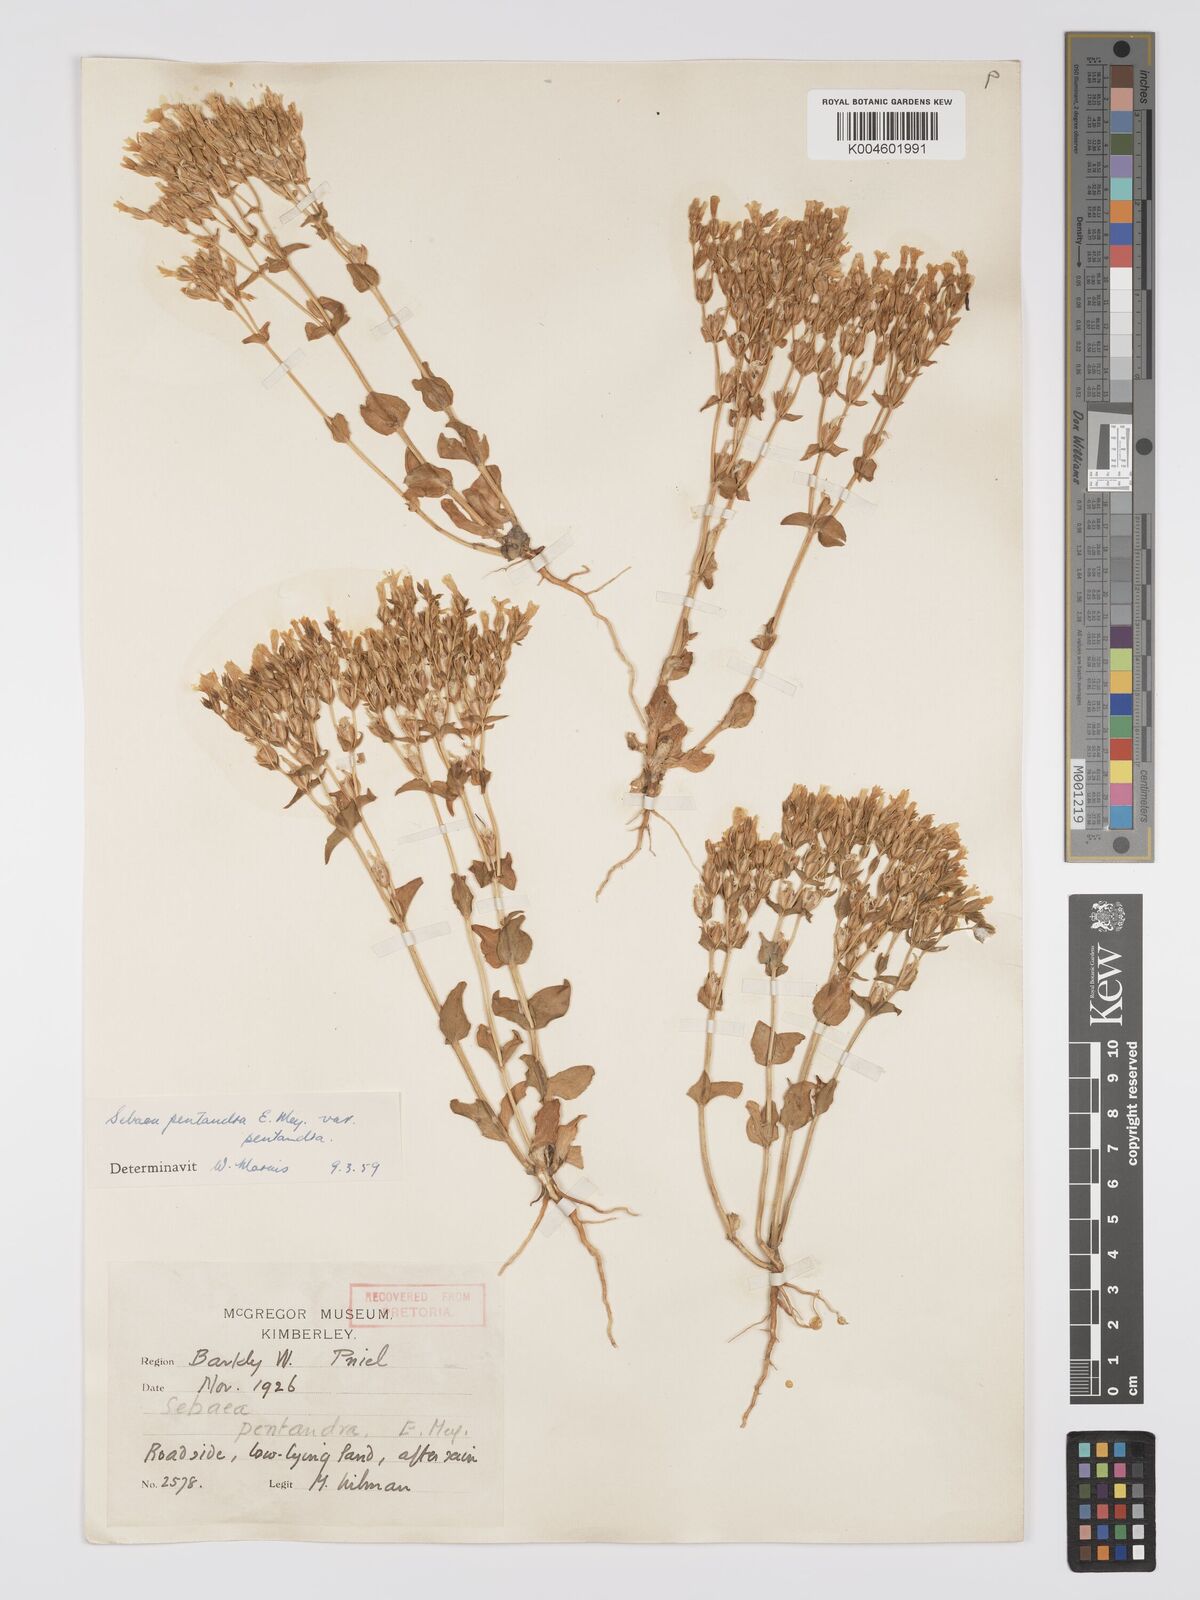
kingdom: Plantae
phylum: Tracheophyta
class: Magnoliopsida
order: Gentianales
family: Gentianaceae
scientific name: Gentianaceae
